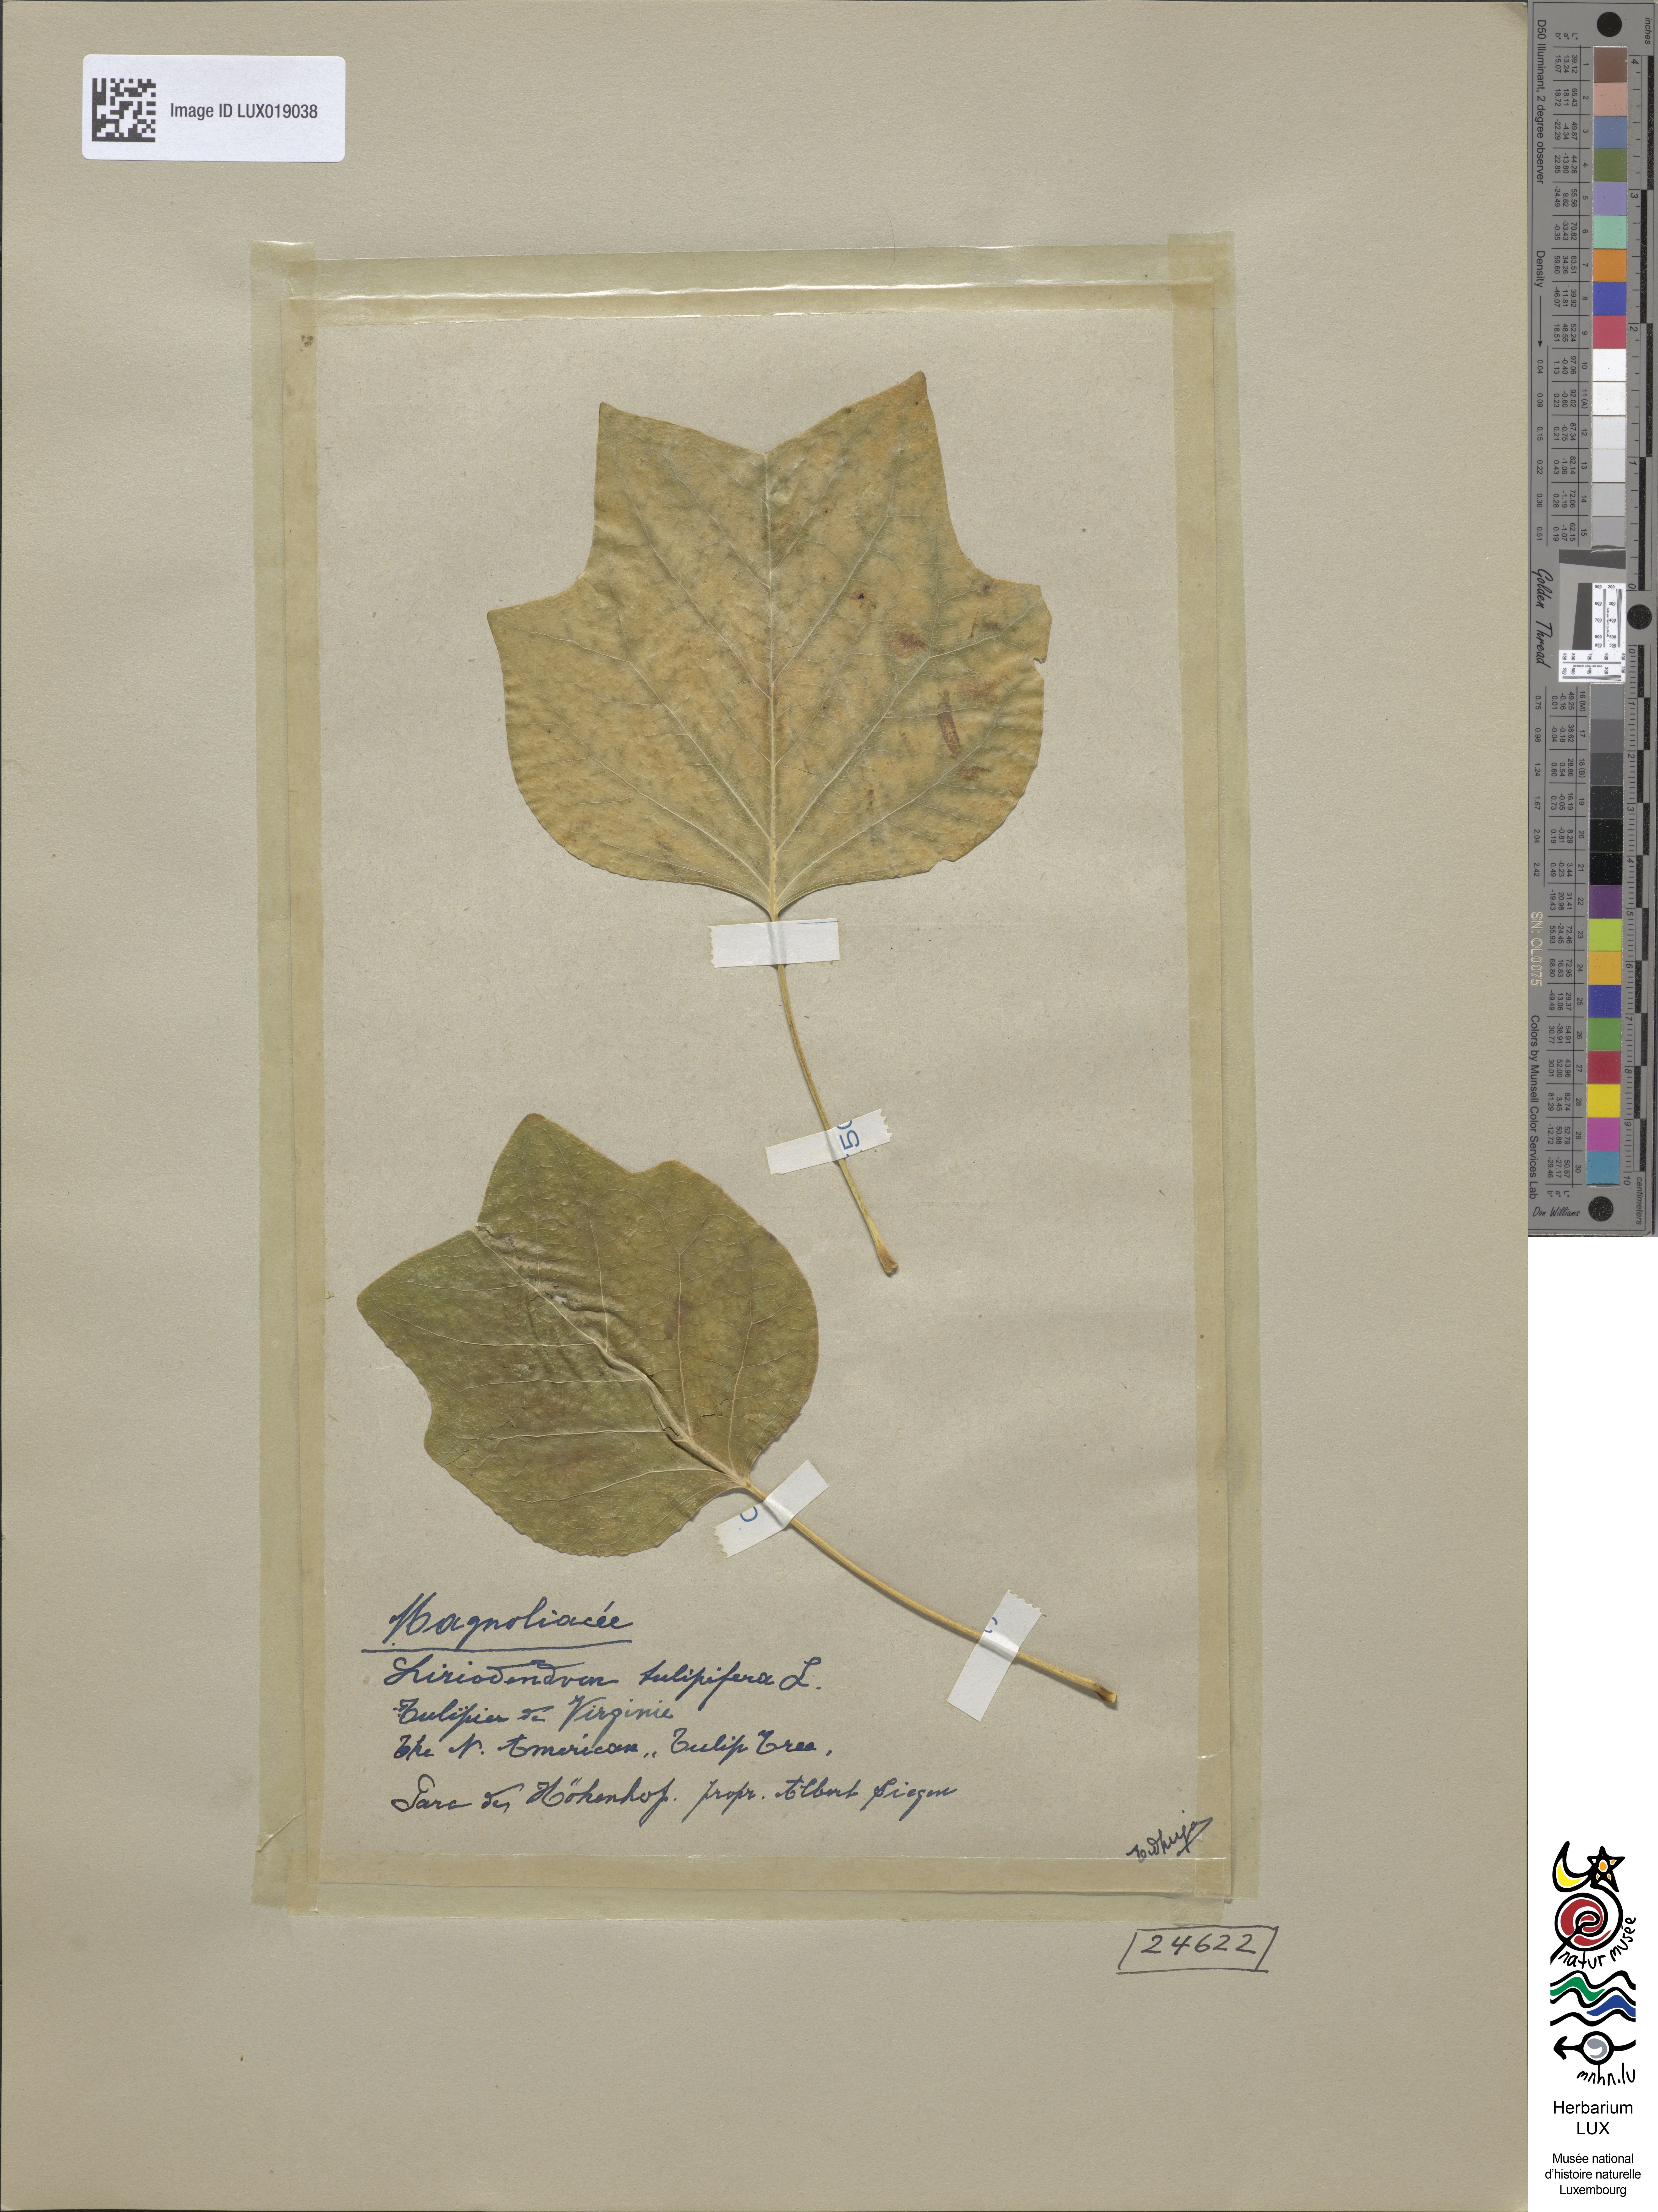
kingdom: Plantae
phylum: Tracheophyta
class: Magnoliopsida
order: Magnoliales
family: Magnoliaceae
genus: Liriodendron
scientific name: Liriodendron tulipifera
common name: Tulip tree
